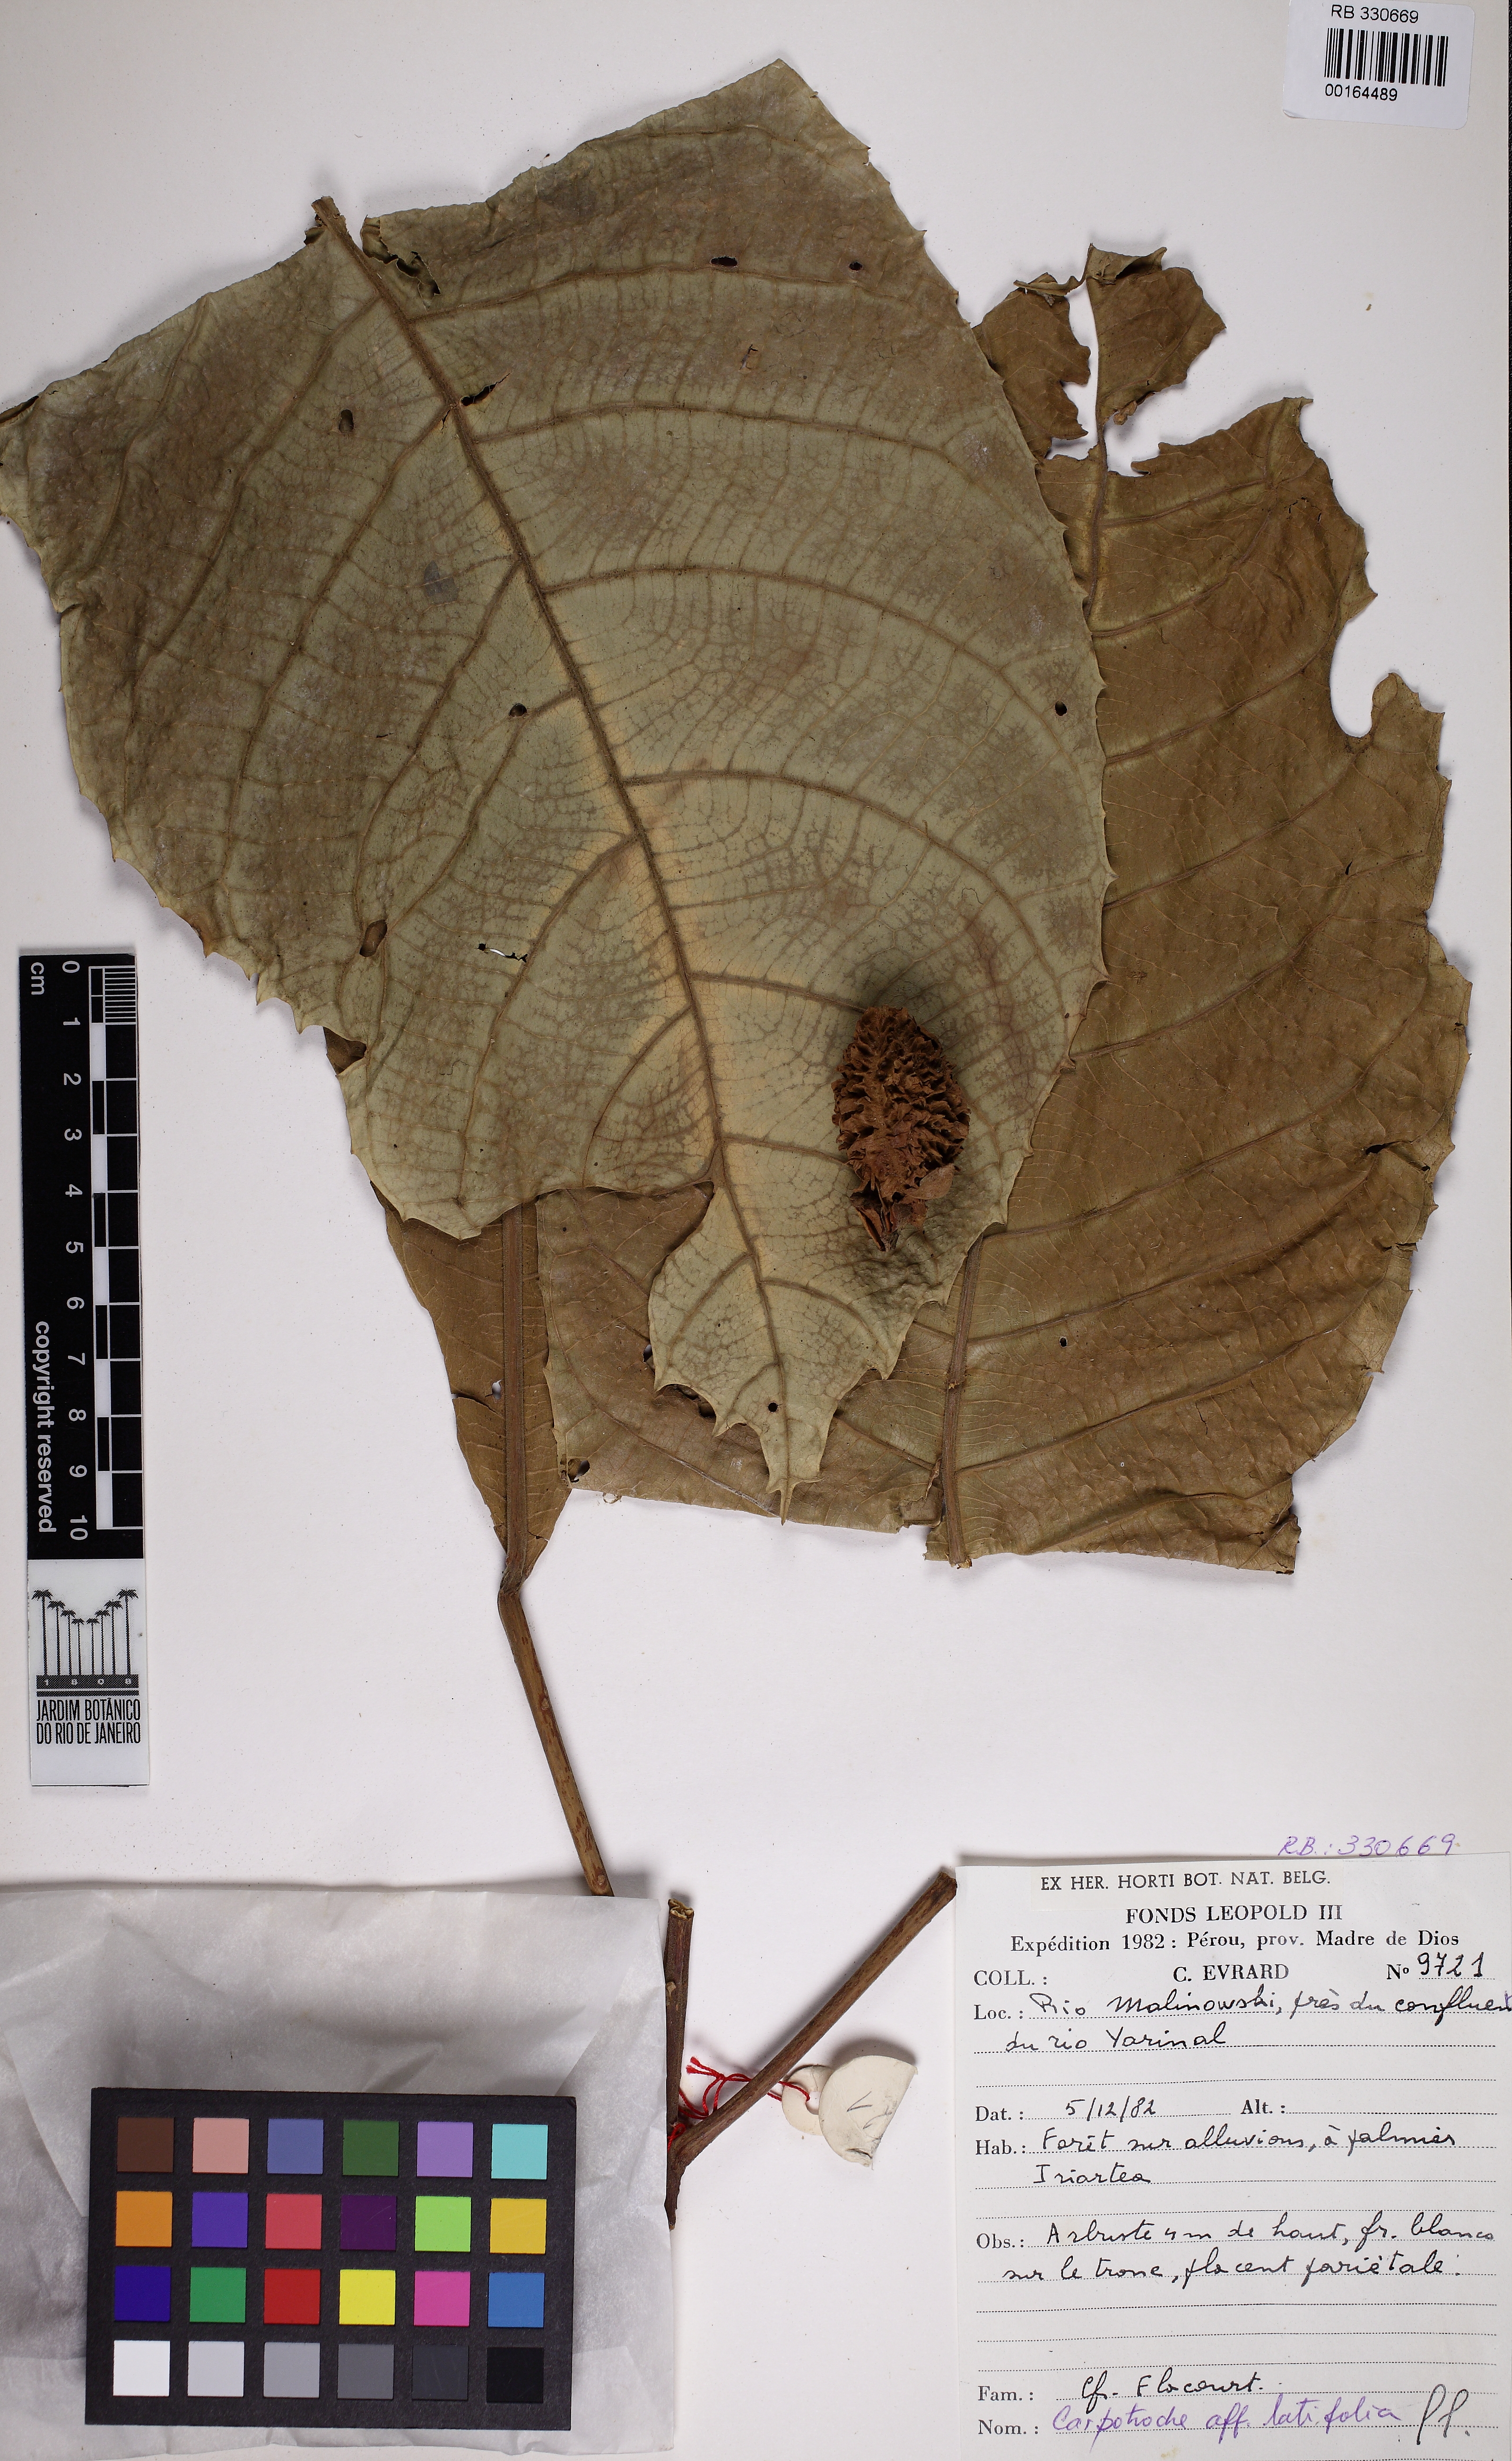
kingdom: Plantae
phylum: Tracheophyta
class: Magnoliopsida
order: Malpighiales
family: Achariaceae
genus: Carpotroche
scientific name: Carpotroche
